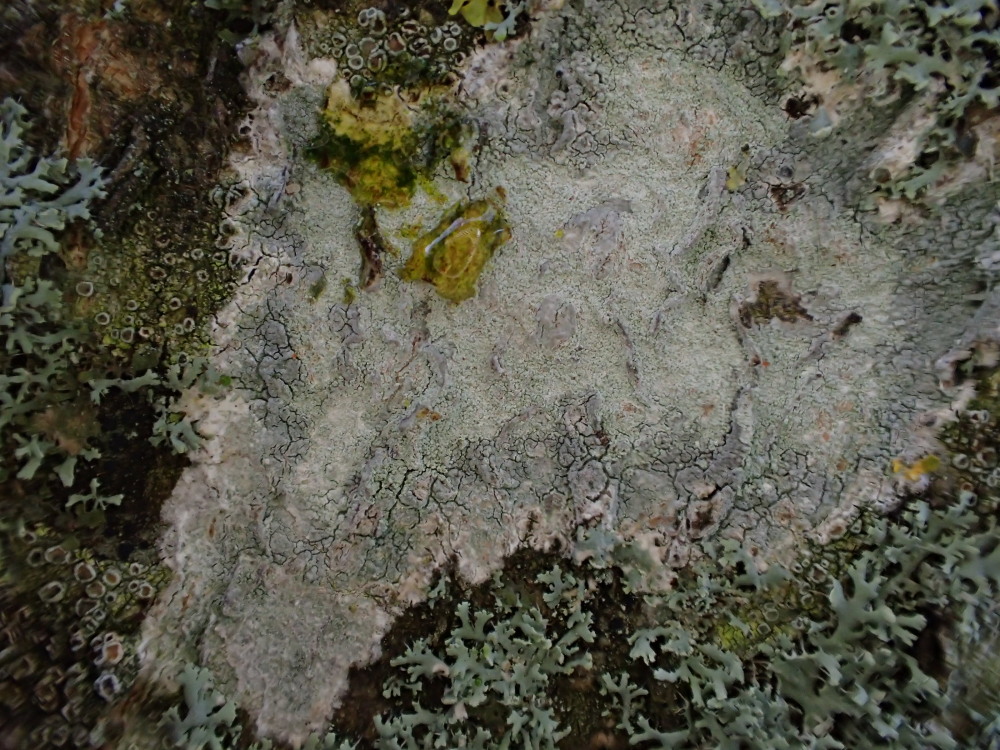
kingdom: Fungi
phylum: Ascomycota
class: Lecanoromycetes
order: Ostropales
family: Phlyctidaceae
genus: Phlyctis
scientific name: Phlyctis argena
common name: almindelig sølvlav
